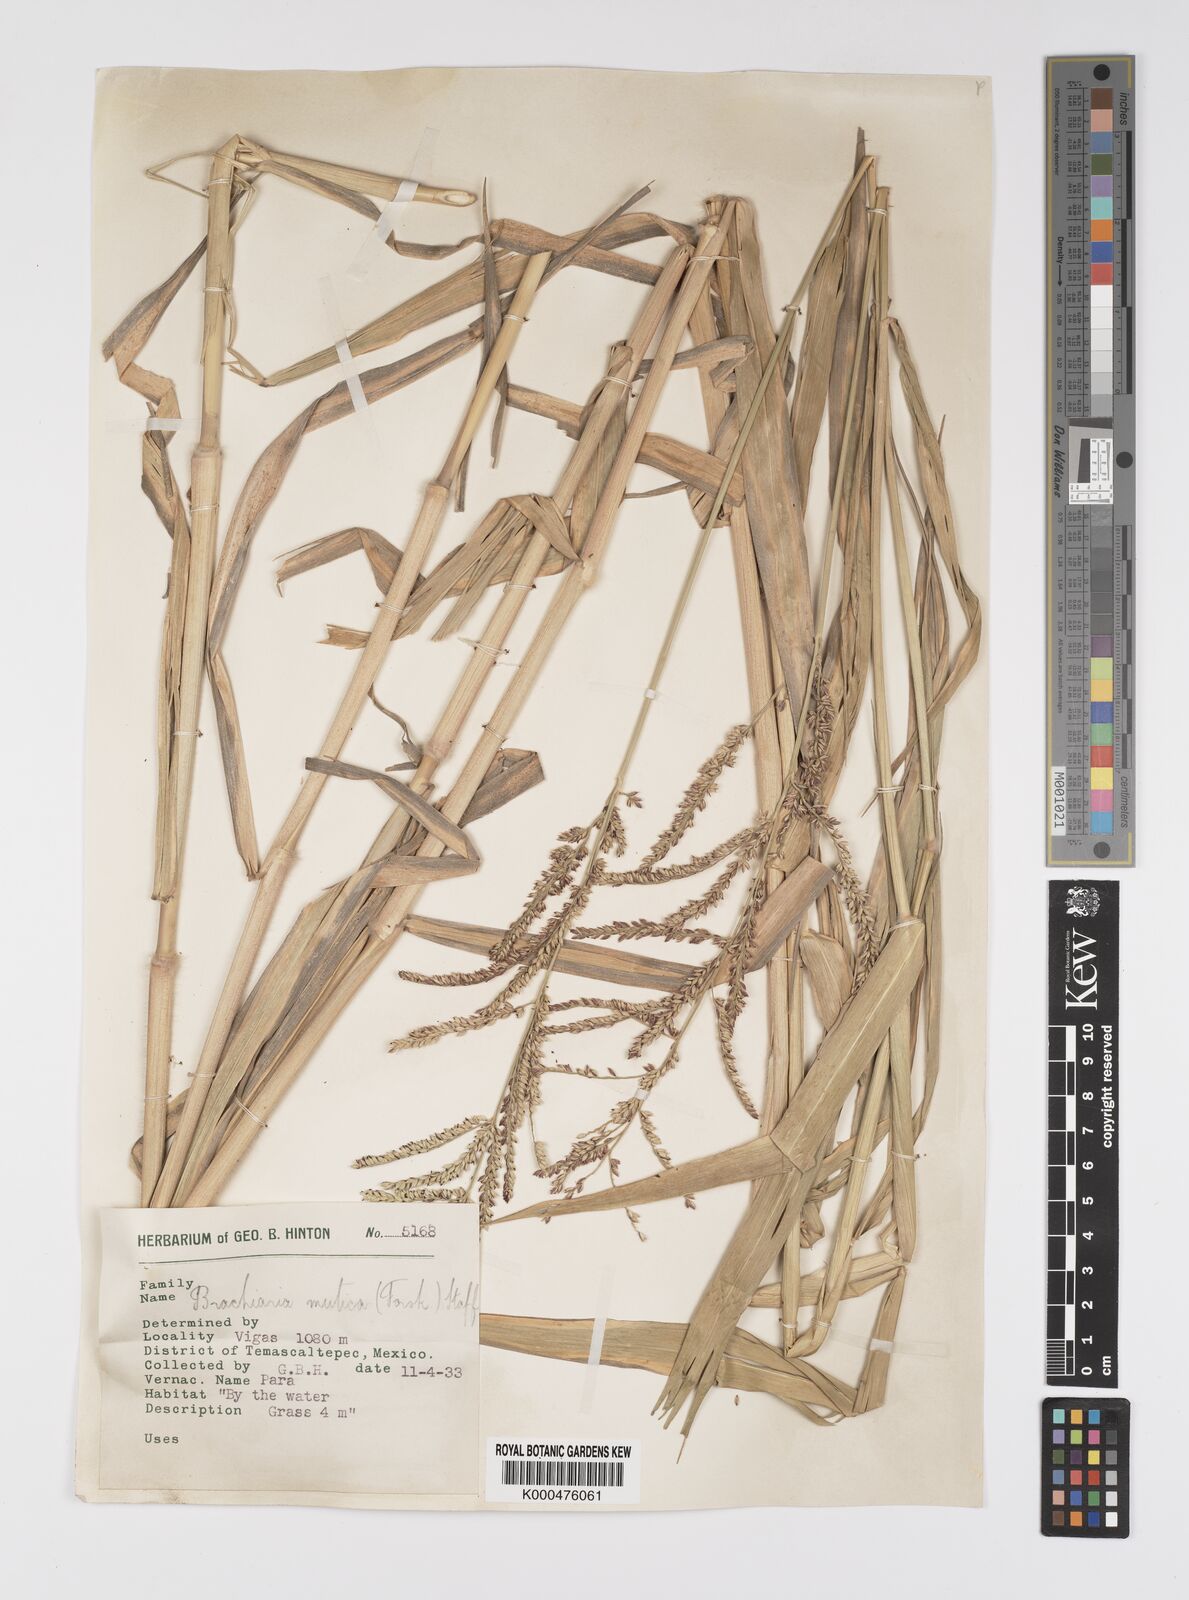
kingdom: Plantae
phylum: Tracheophyta
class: Liliopsida
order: Poales
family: Poaceae
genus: Urochloa
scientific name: Urochloa mutica
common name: Para grass
